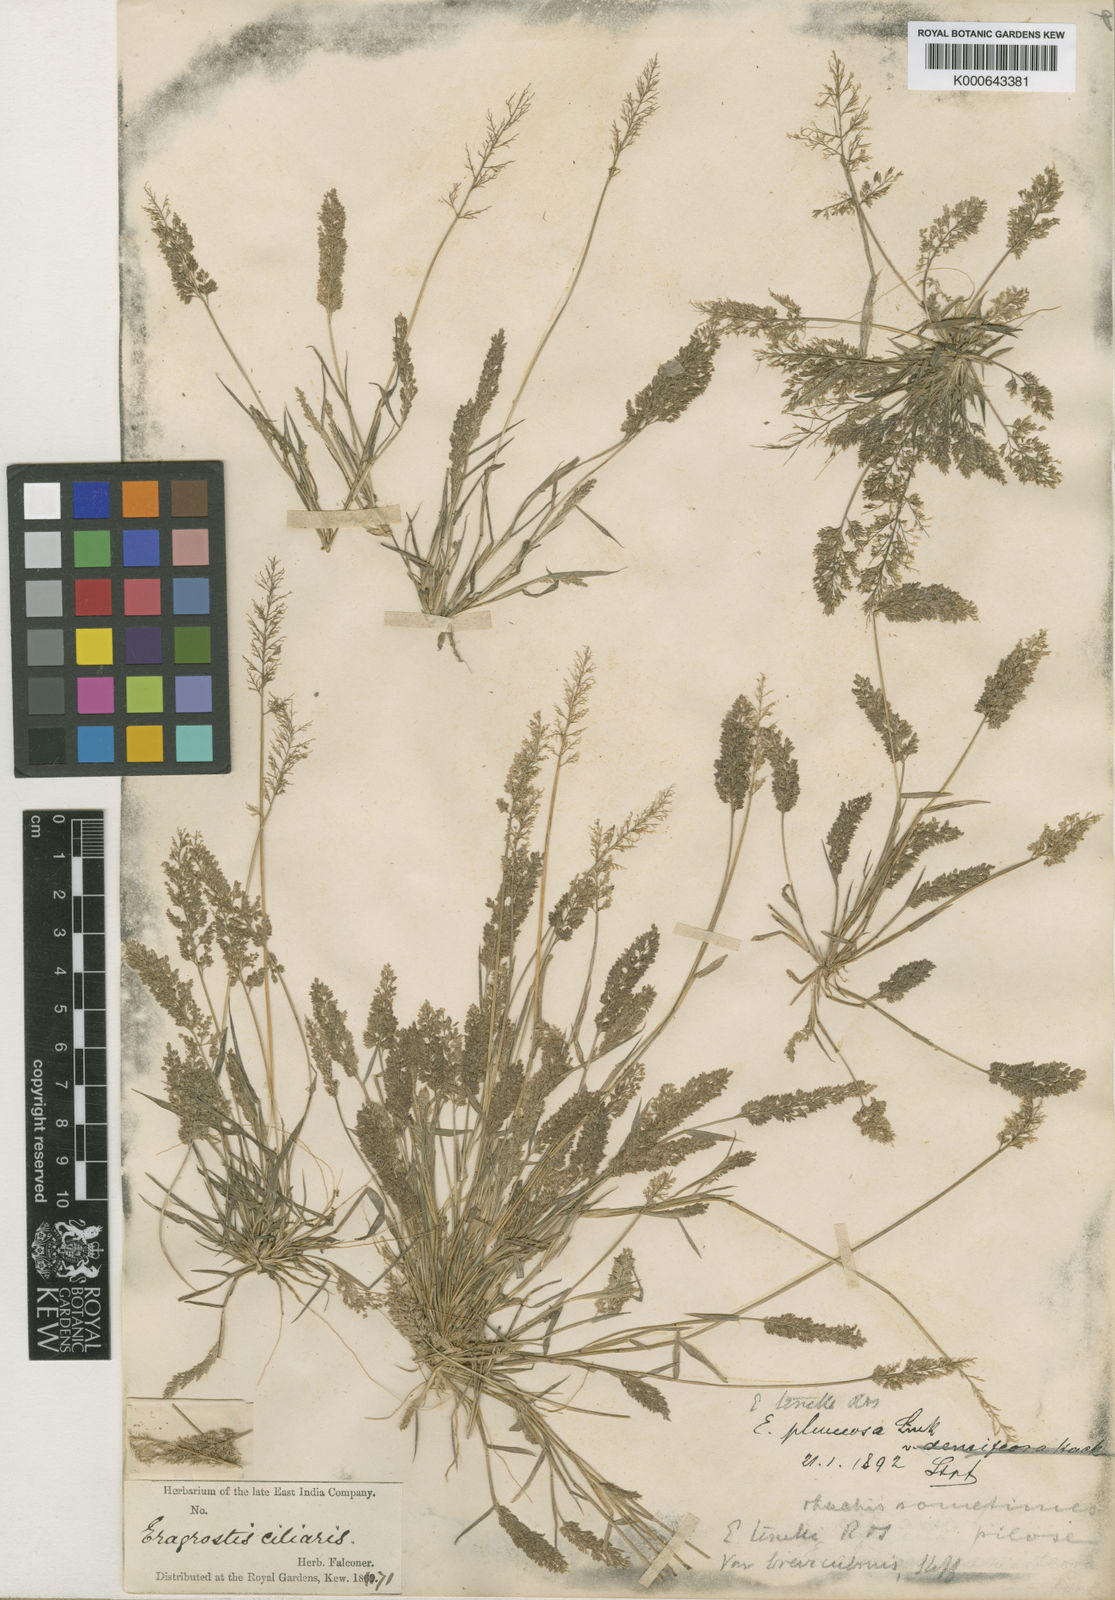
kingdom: Plantae
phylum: Tracheophyta
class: Liliopsida
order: Poales
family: Poaceae
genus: Eragrostis
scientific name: Eragrostis tenella
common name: Japanese lovegrass
